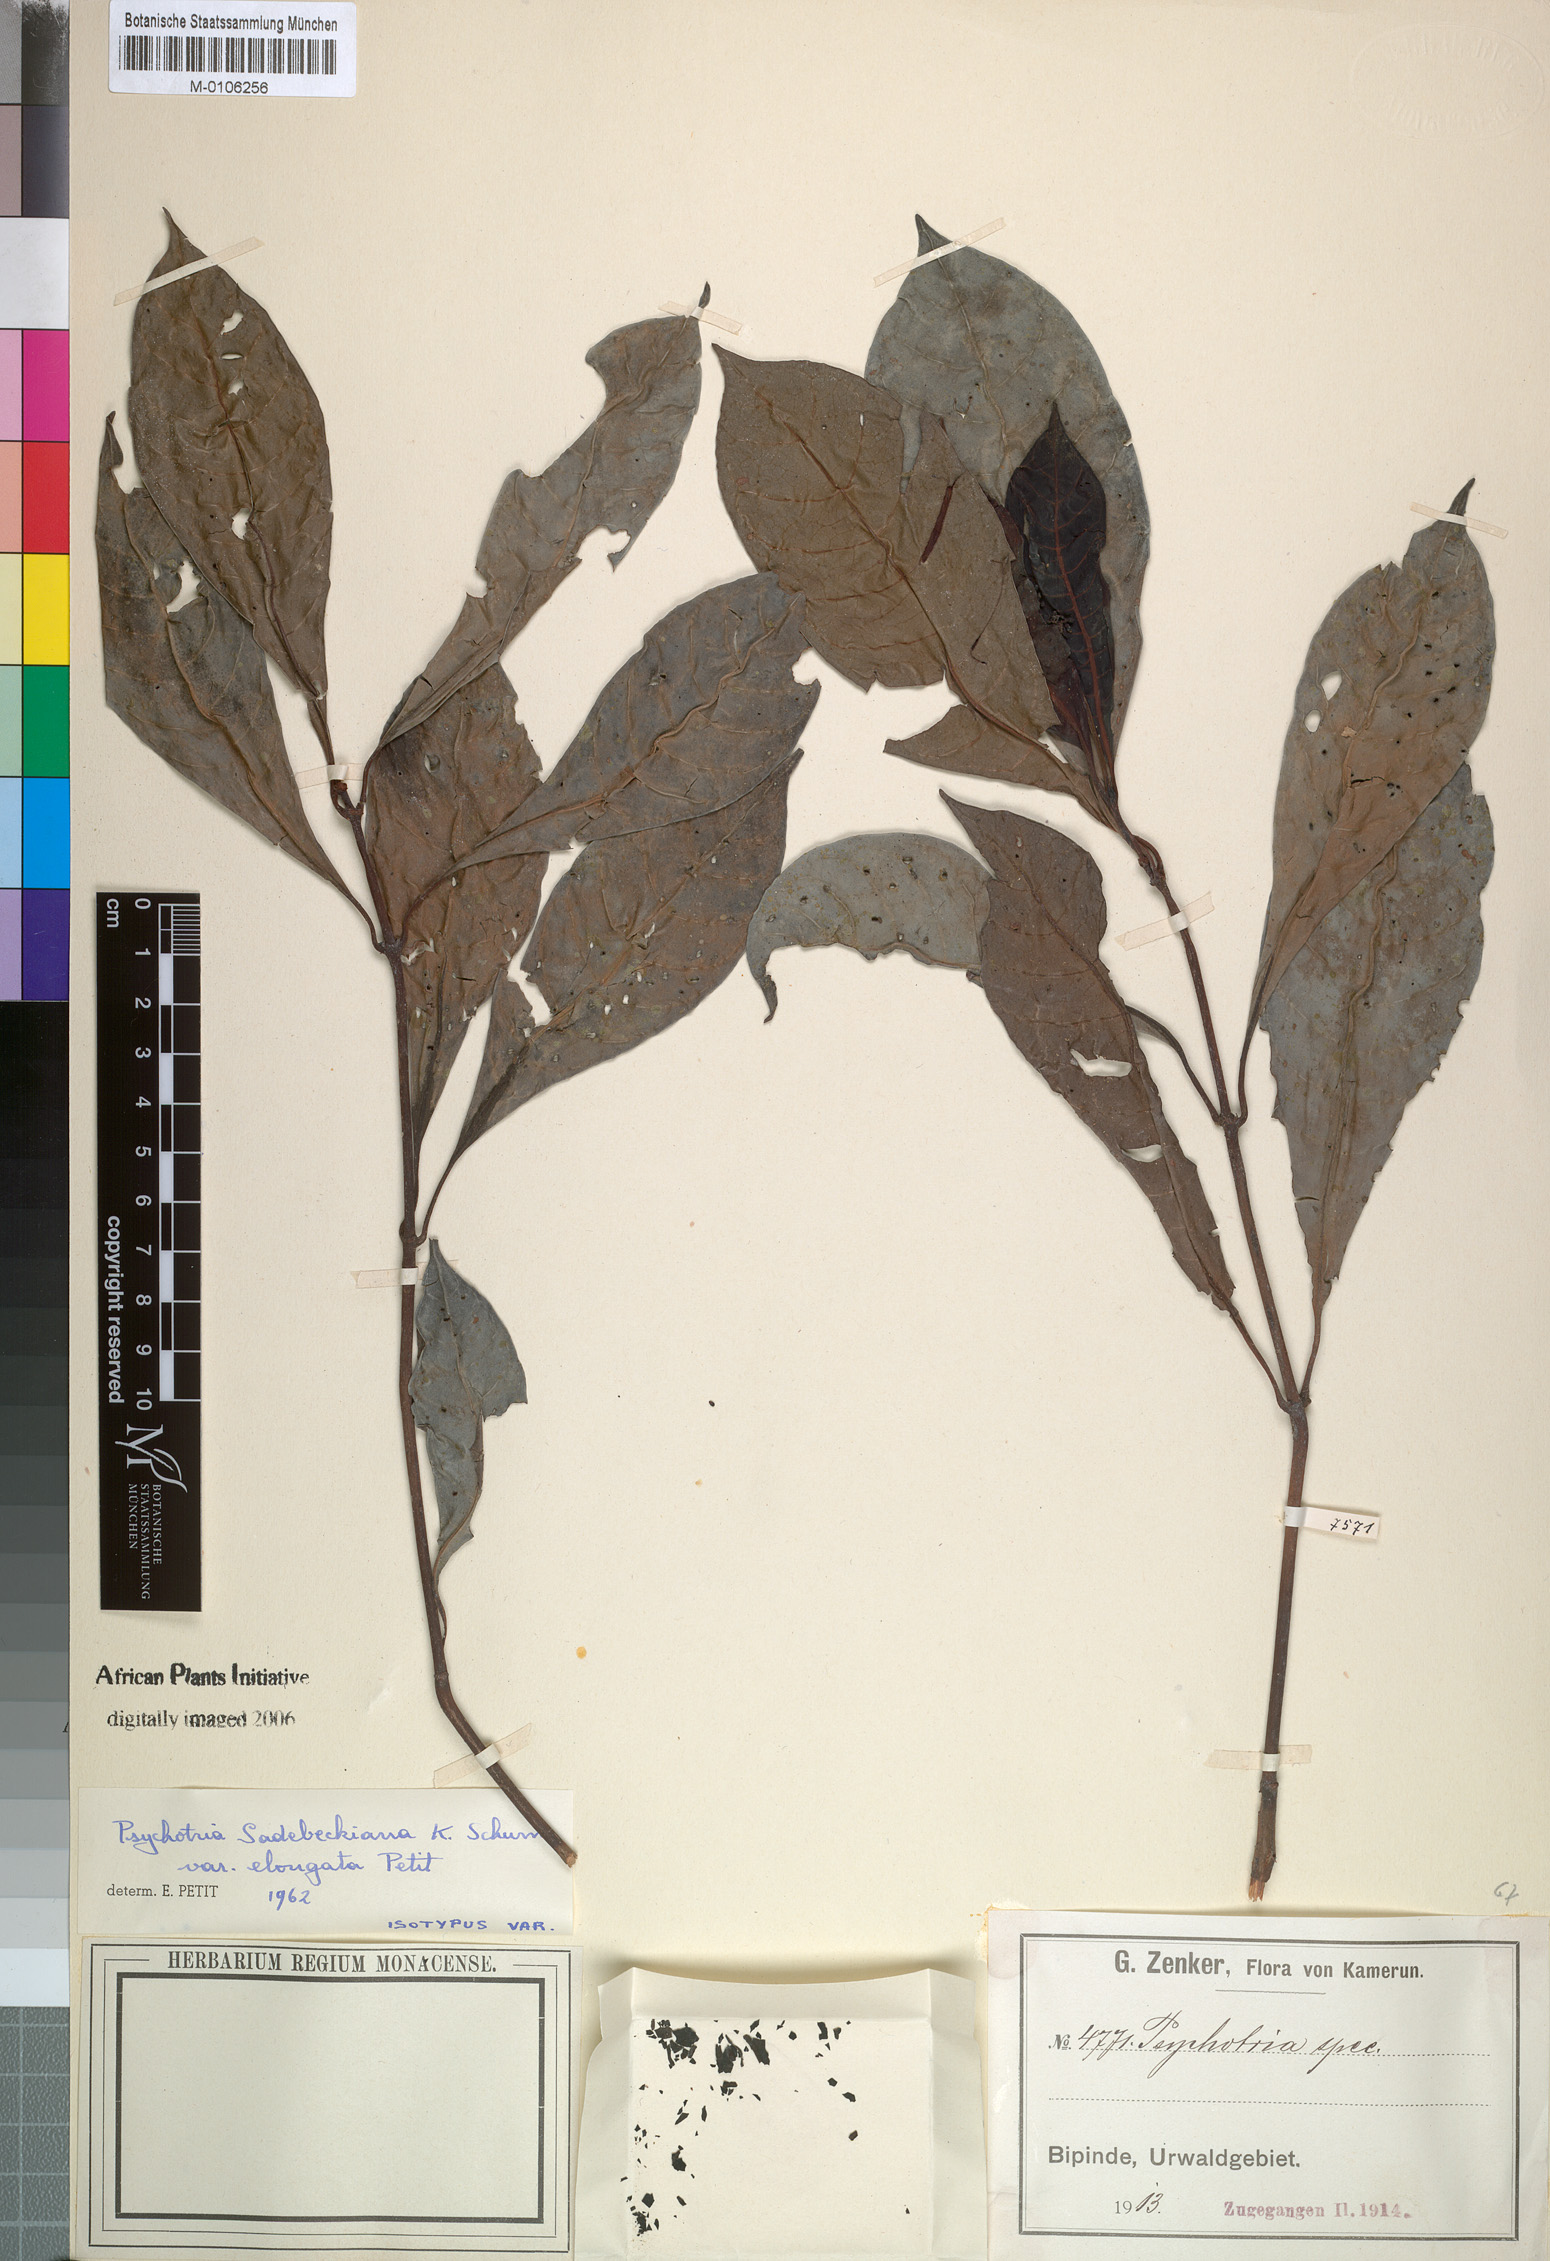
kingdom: Plantae
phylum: Tracheophyta
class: Magnoliopsida
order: Gentianales
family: Rubiaceae
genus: Psychotria
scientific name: Psychotria sadebeckiana
